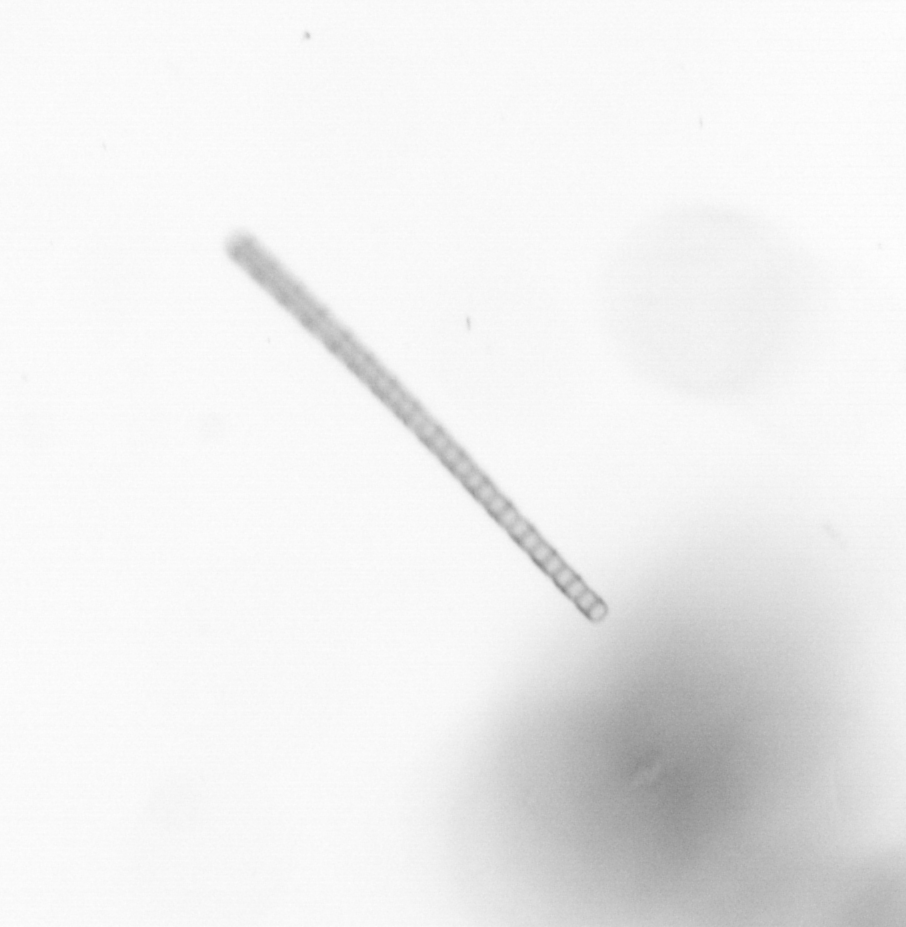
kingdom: Chromista
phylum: Ochrophyta
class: Bacillariophyceae
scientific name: Bacillariophyceae
